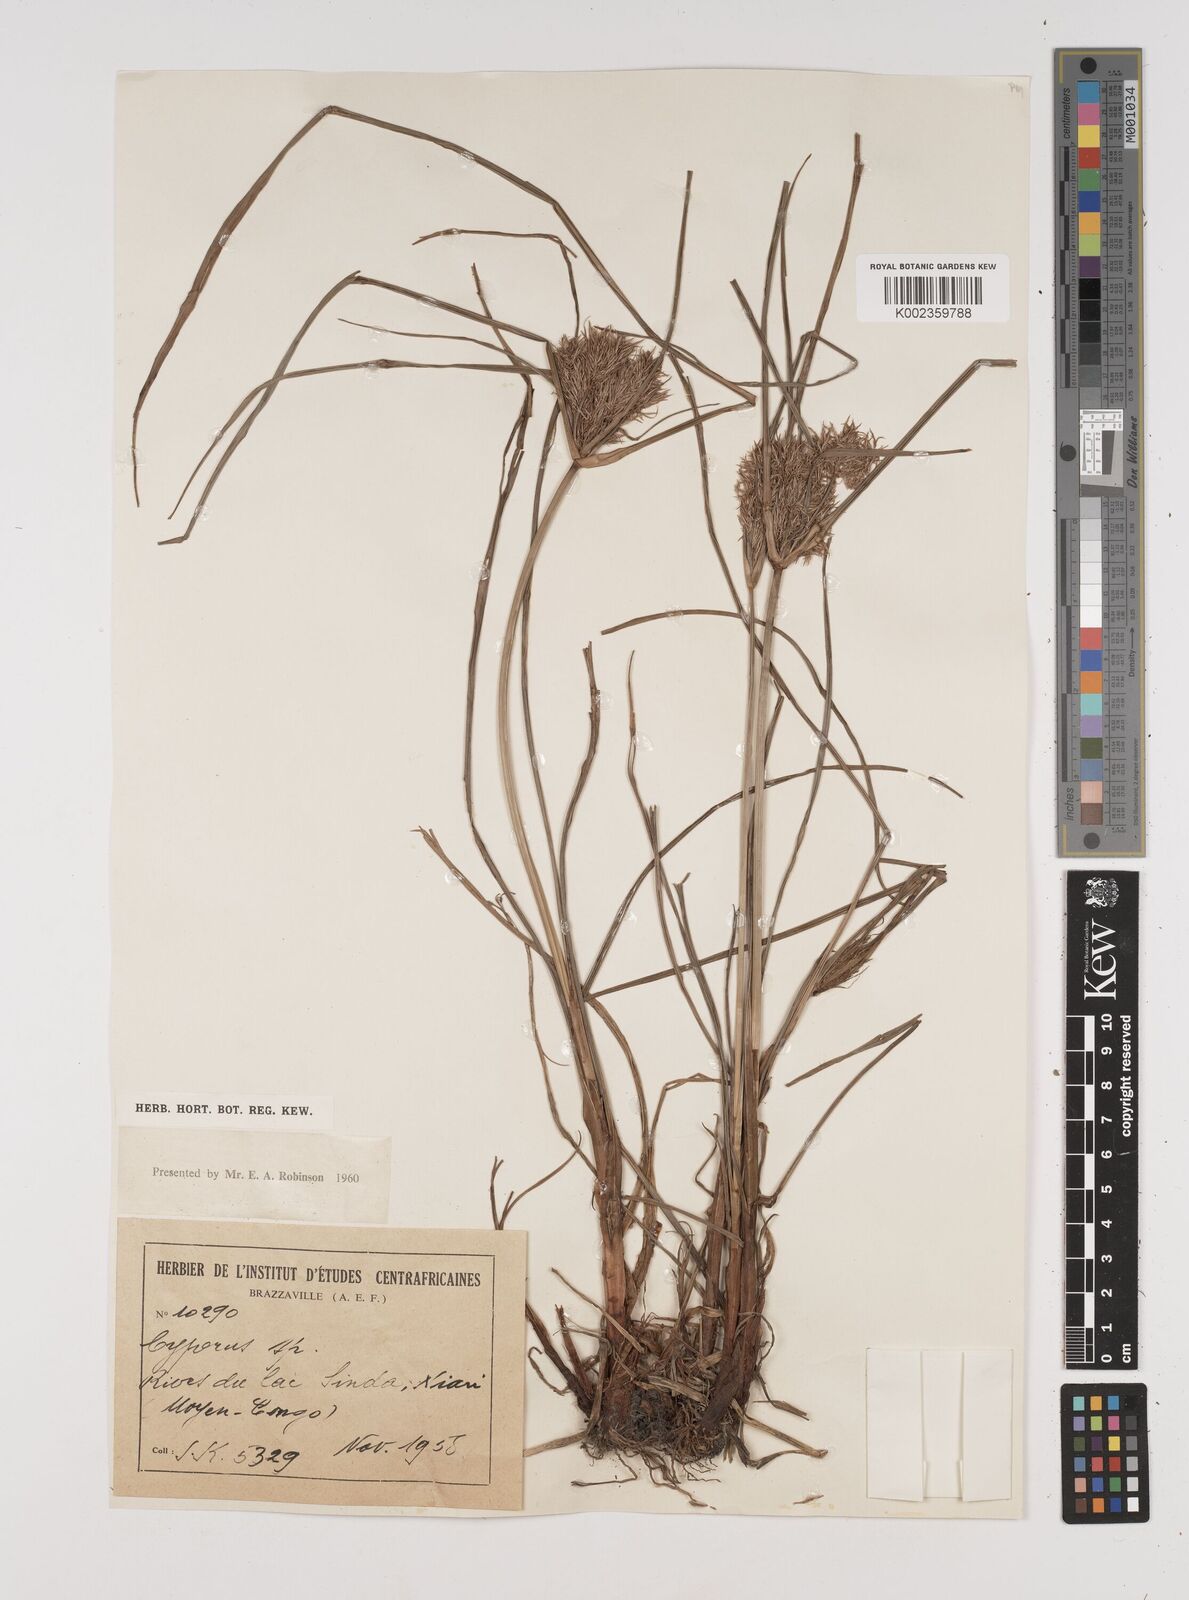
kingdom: Plantae
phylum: Tracheophyta
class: Liliopsida
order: Poales
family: Cyperaceae
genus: Cyperus
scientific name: Cyperus distans
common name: Slender cyperus
